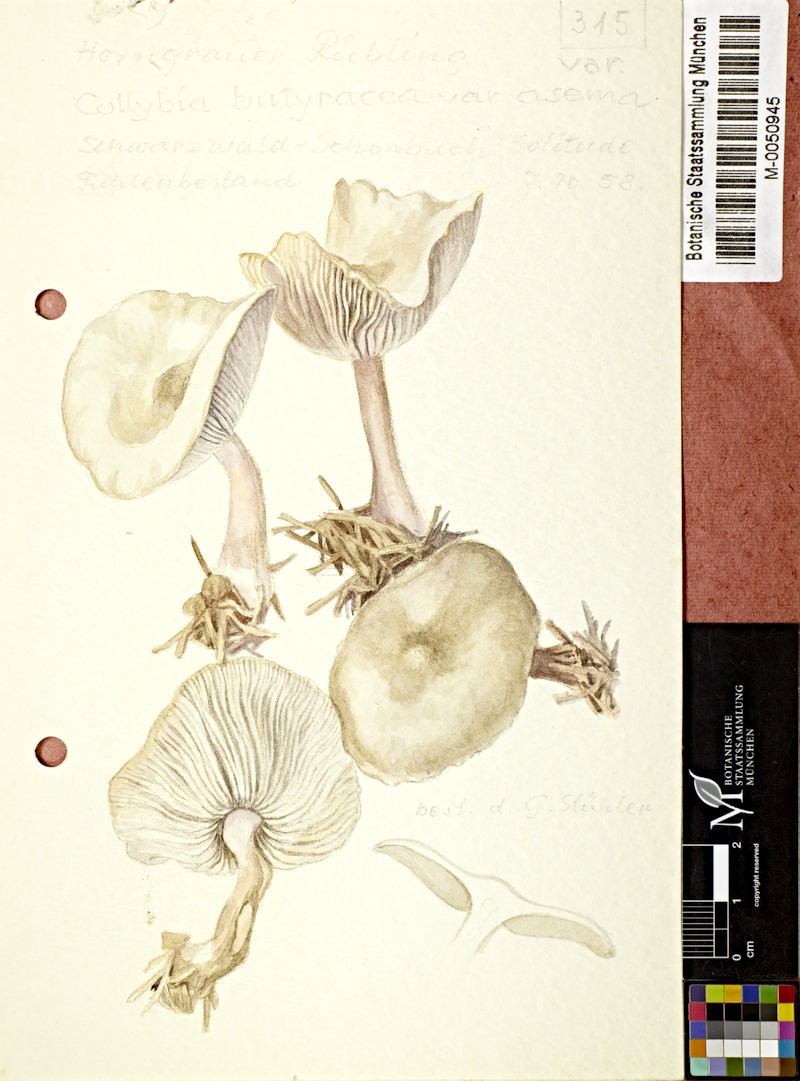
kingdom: Fungi
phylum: Basidiomycota
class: Agaricomycetes
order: Agaricales
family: Omphalotaceae
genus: Rhodocollybia
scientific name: Rhodocollybia asema
